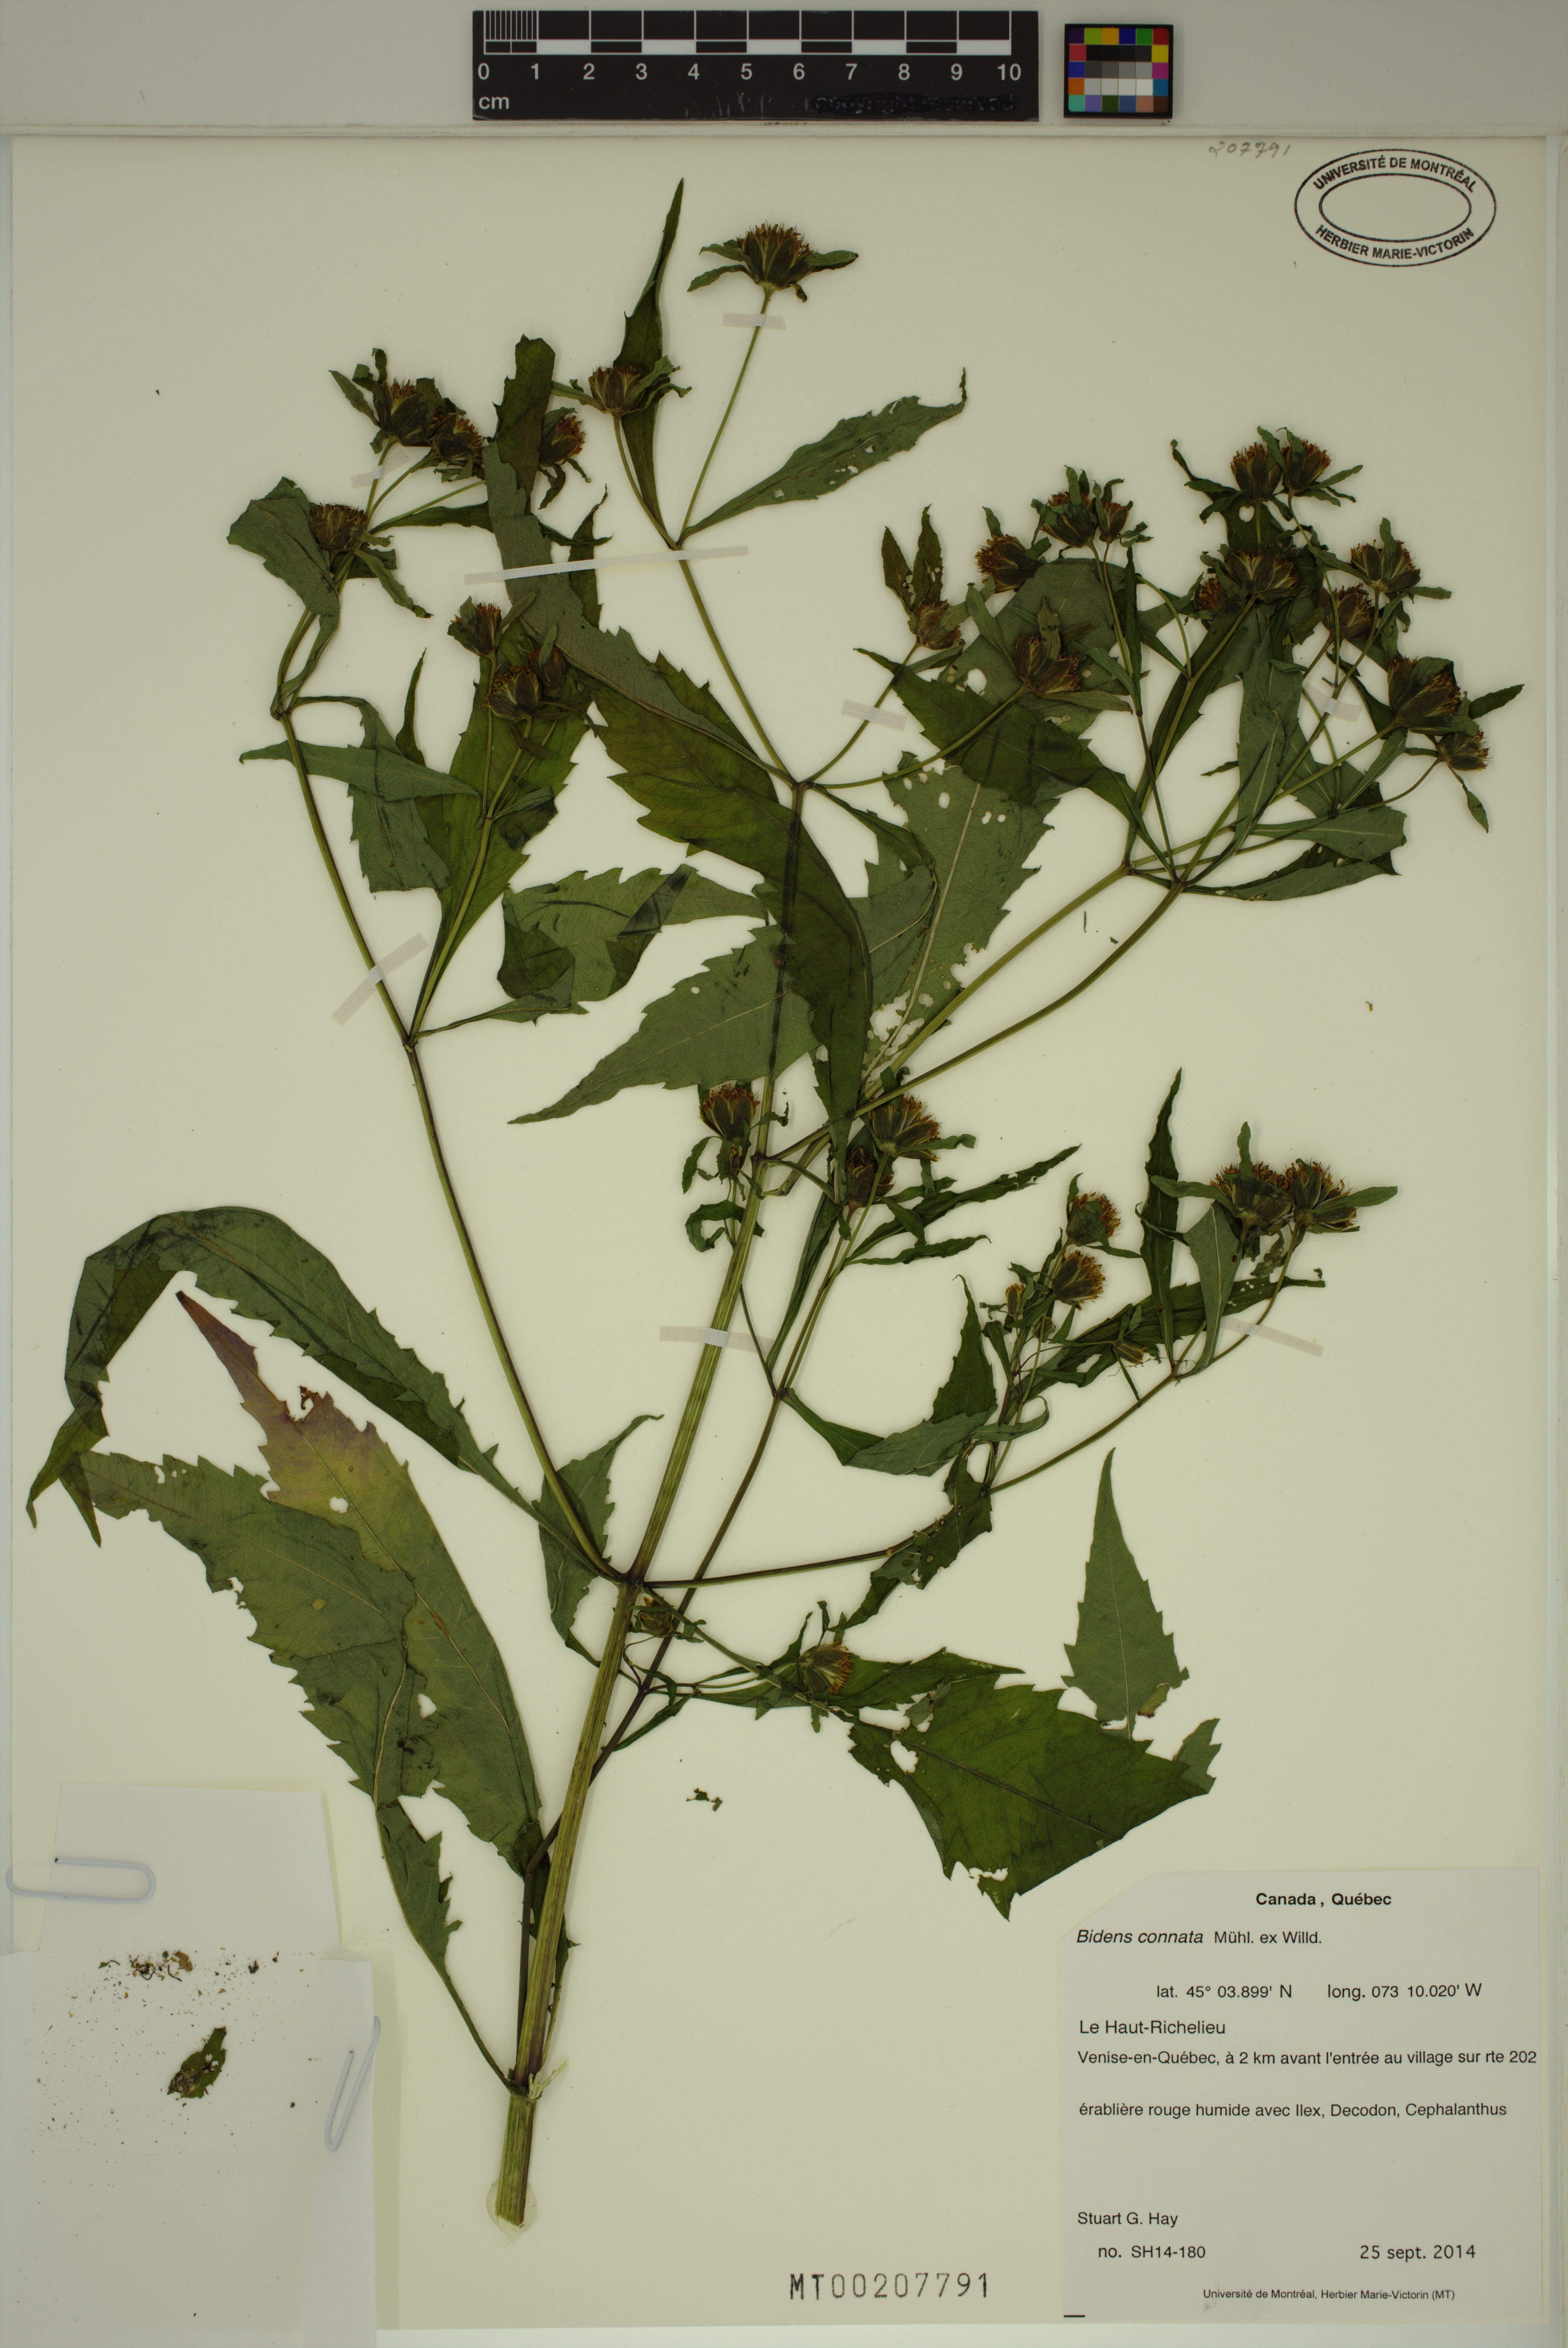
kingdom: Plantae
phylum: Tracheophyta
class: Magnoliopsida
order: Asterales
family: Asteraceae
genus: Bidens
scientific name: Bidens connata
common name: London bur-marigold
